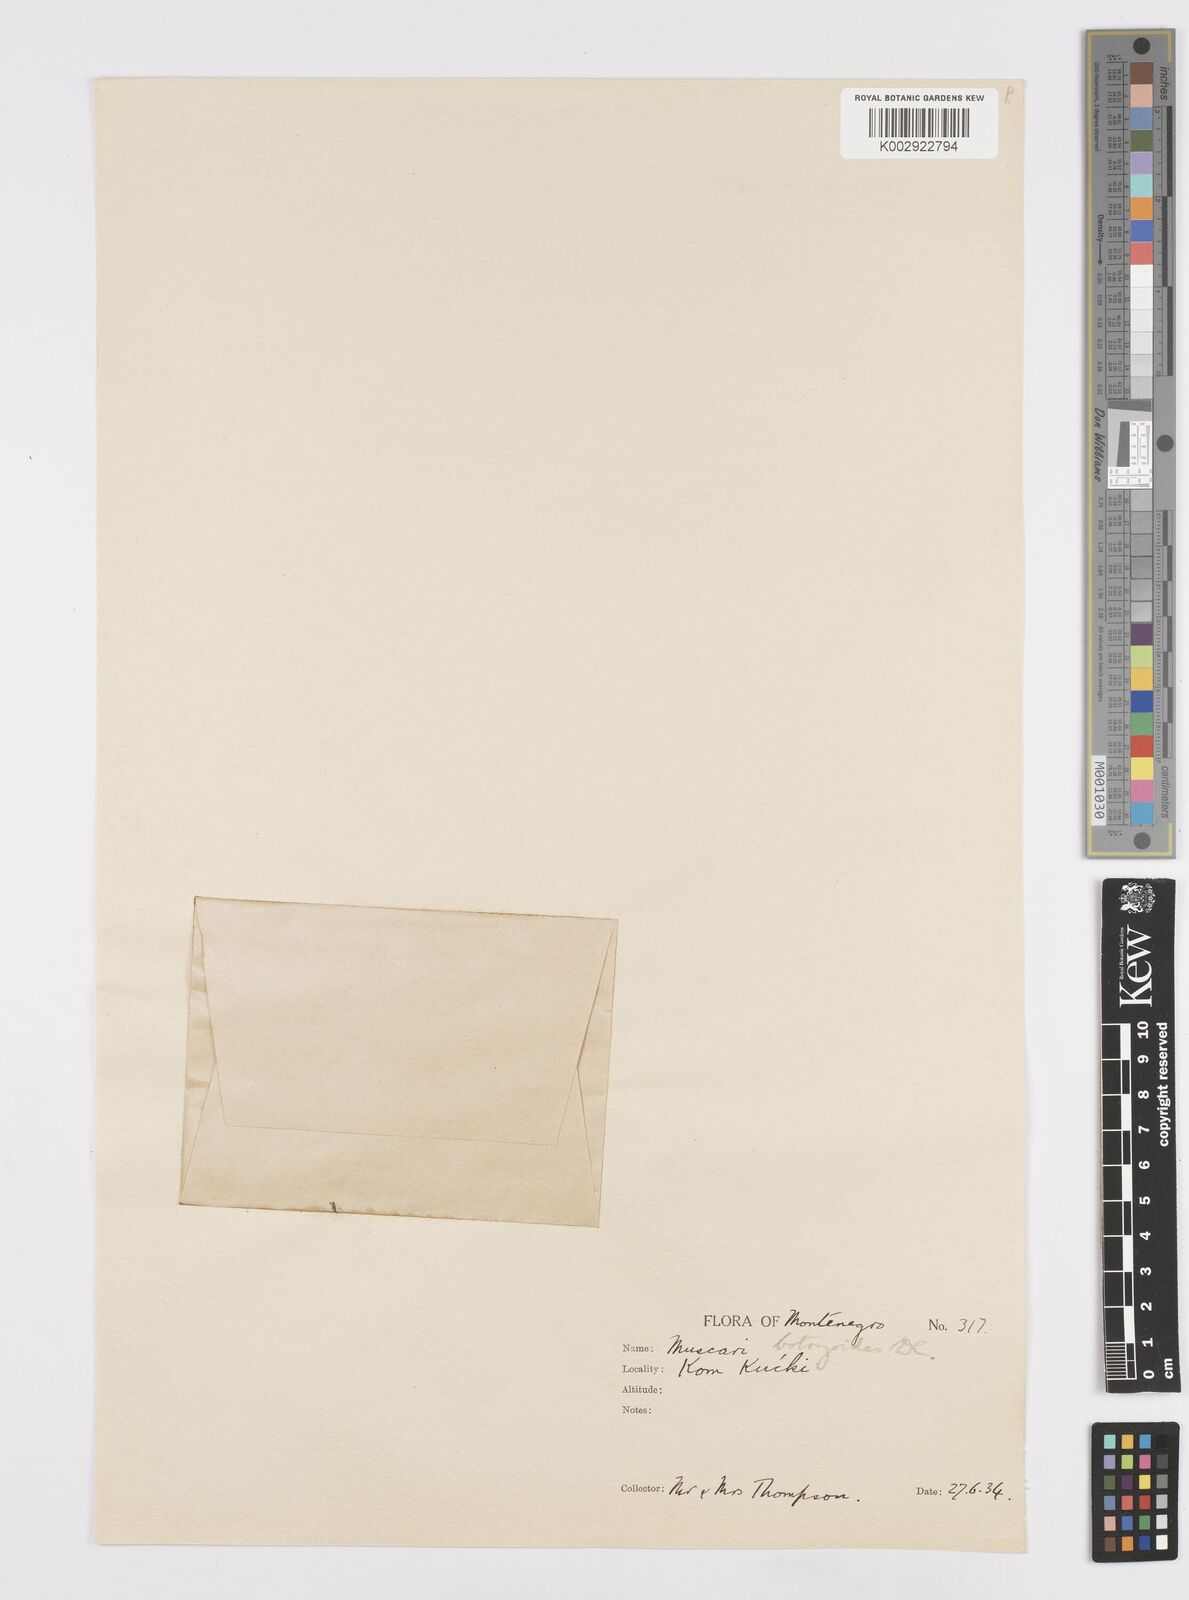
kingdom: Plantae
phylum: Tracheophyta
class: Liliopsida
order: Asparagales
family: Asparagaceae
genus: Muscari
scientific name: Muscari
